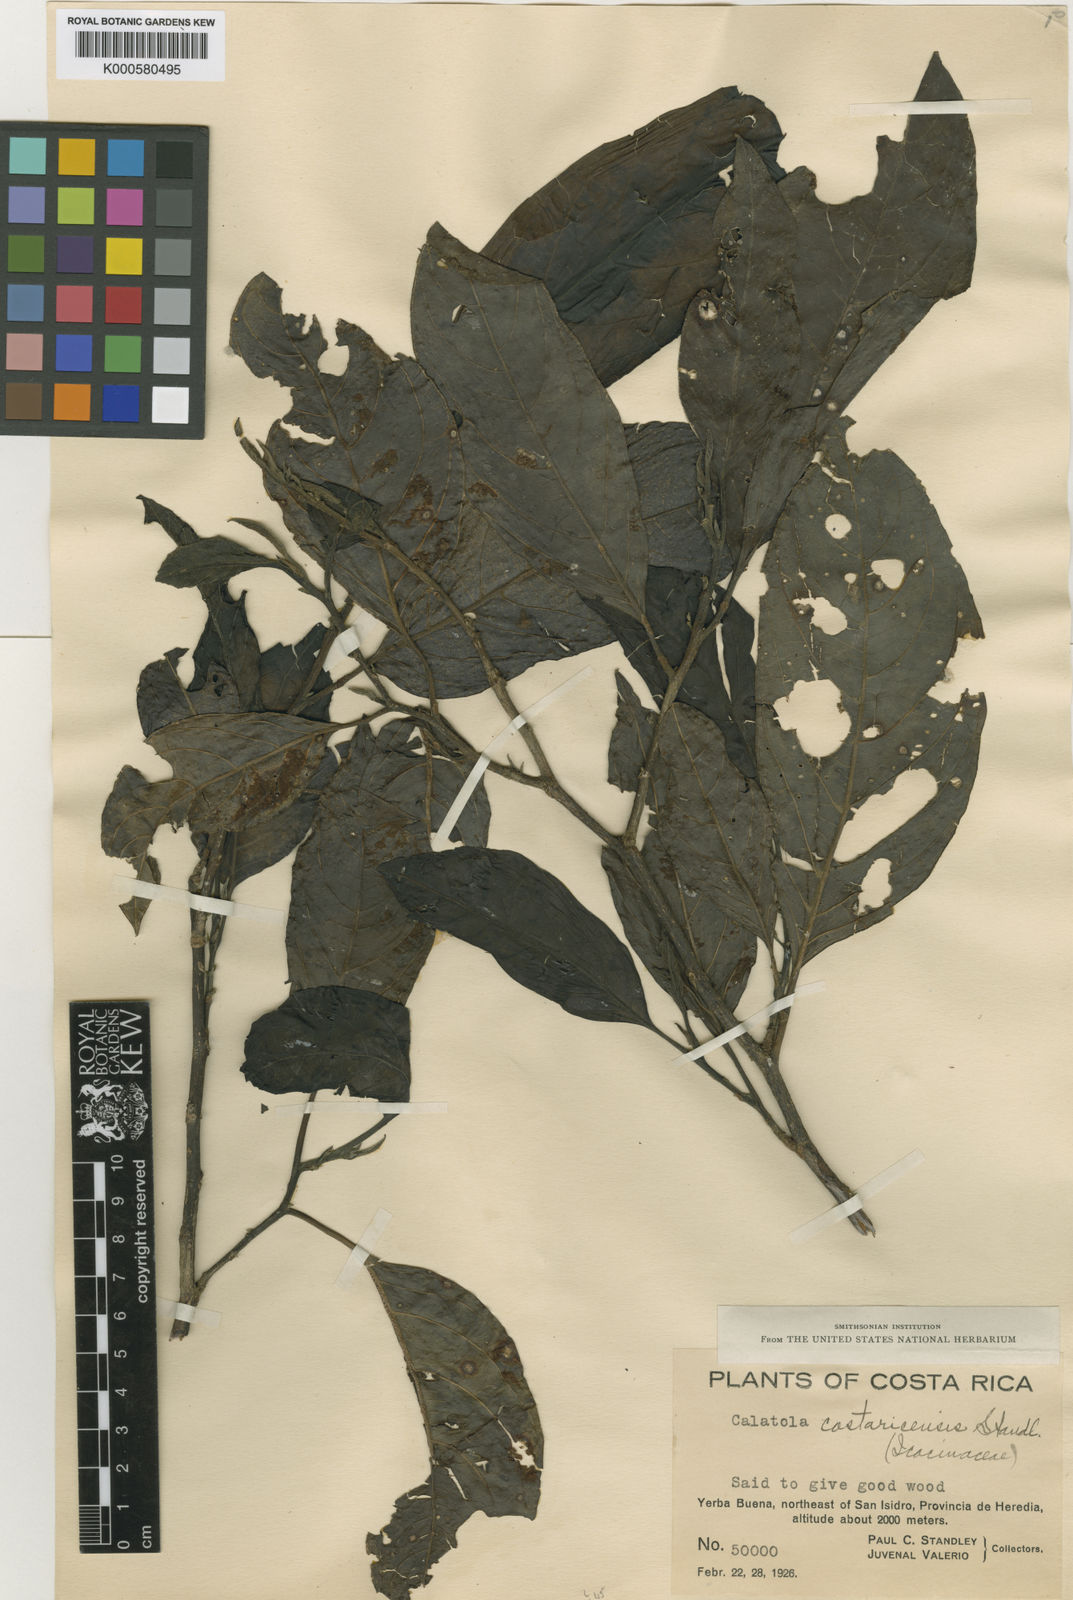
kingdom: Plantae
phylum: Tracheophyta
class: Magnoliopsida
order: Metteniusales
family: Metteniusaceae
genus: Calatola
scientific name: Calatola costaricensis
